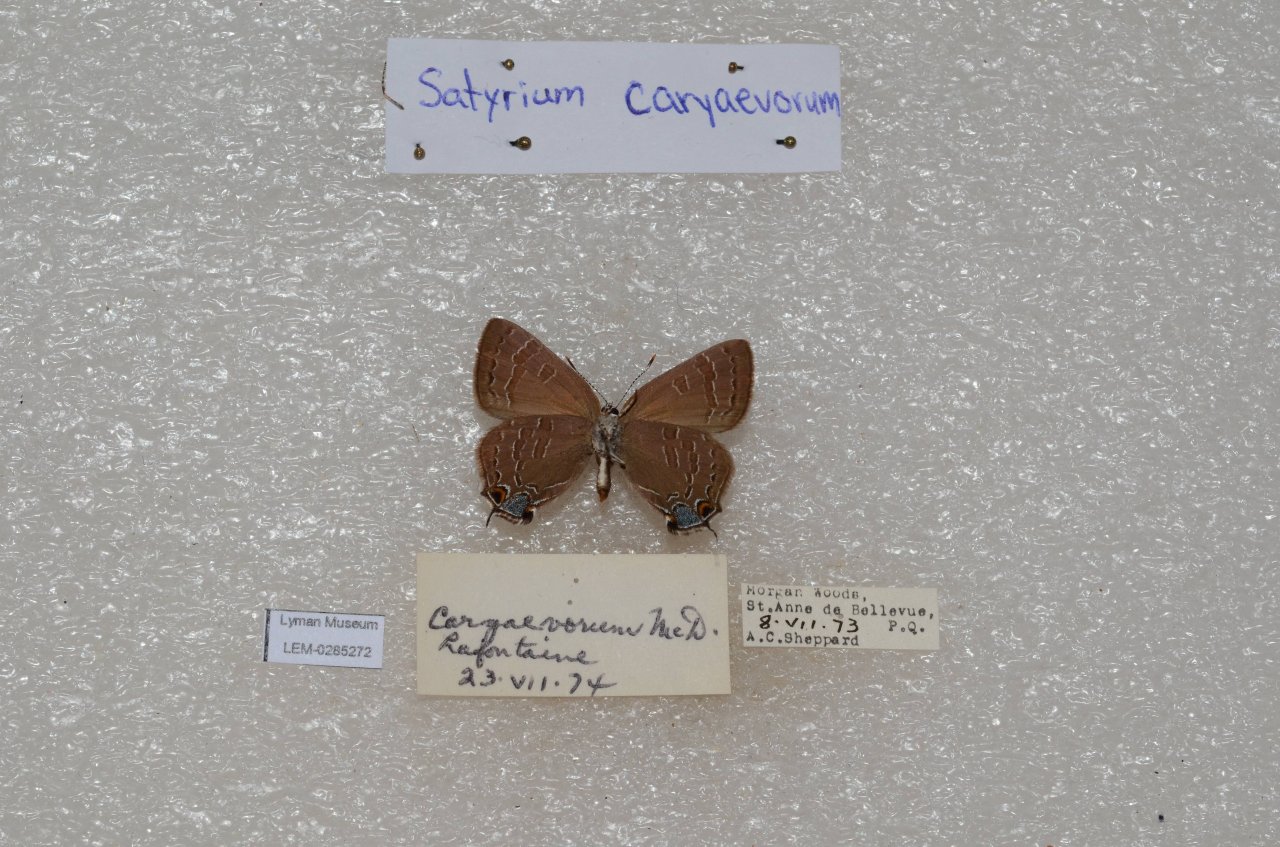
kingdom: Animalia
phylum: Arthropoda
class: Insecta
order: Lepidoptera
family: Lycaenidae
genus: Strymon
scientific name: Strymon caryaevorus
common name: Hickory Hairstreak
